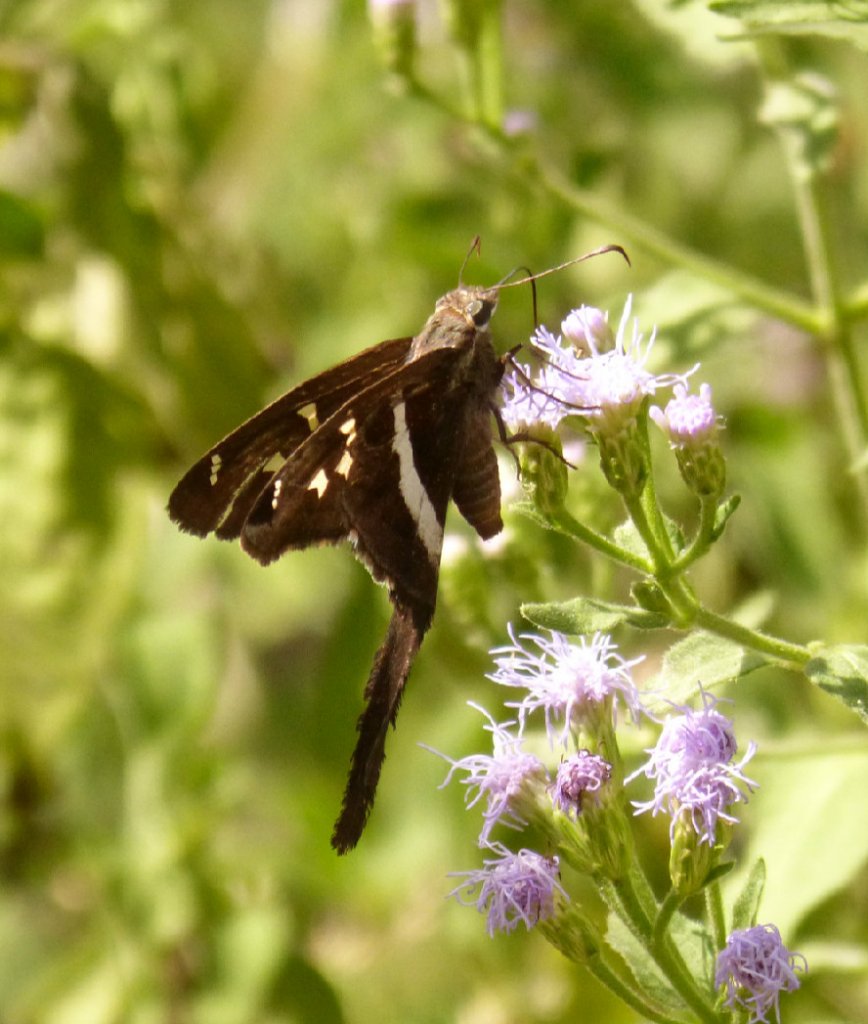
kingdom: Animalia
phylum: Arthropoda
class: Insecta
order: Lepidoptera
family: Hesperiidae
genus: Chioides
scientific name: Chioides catillus
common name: White-striped Longtail
